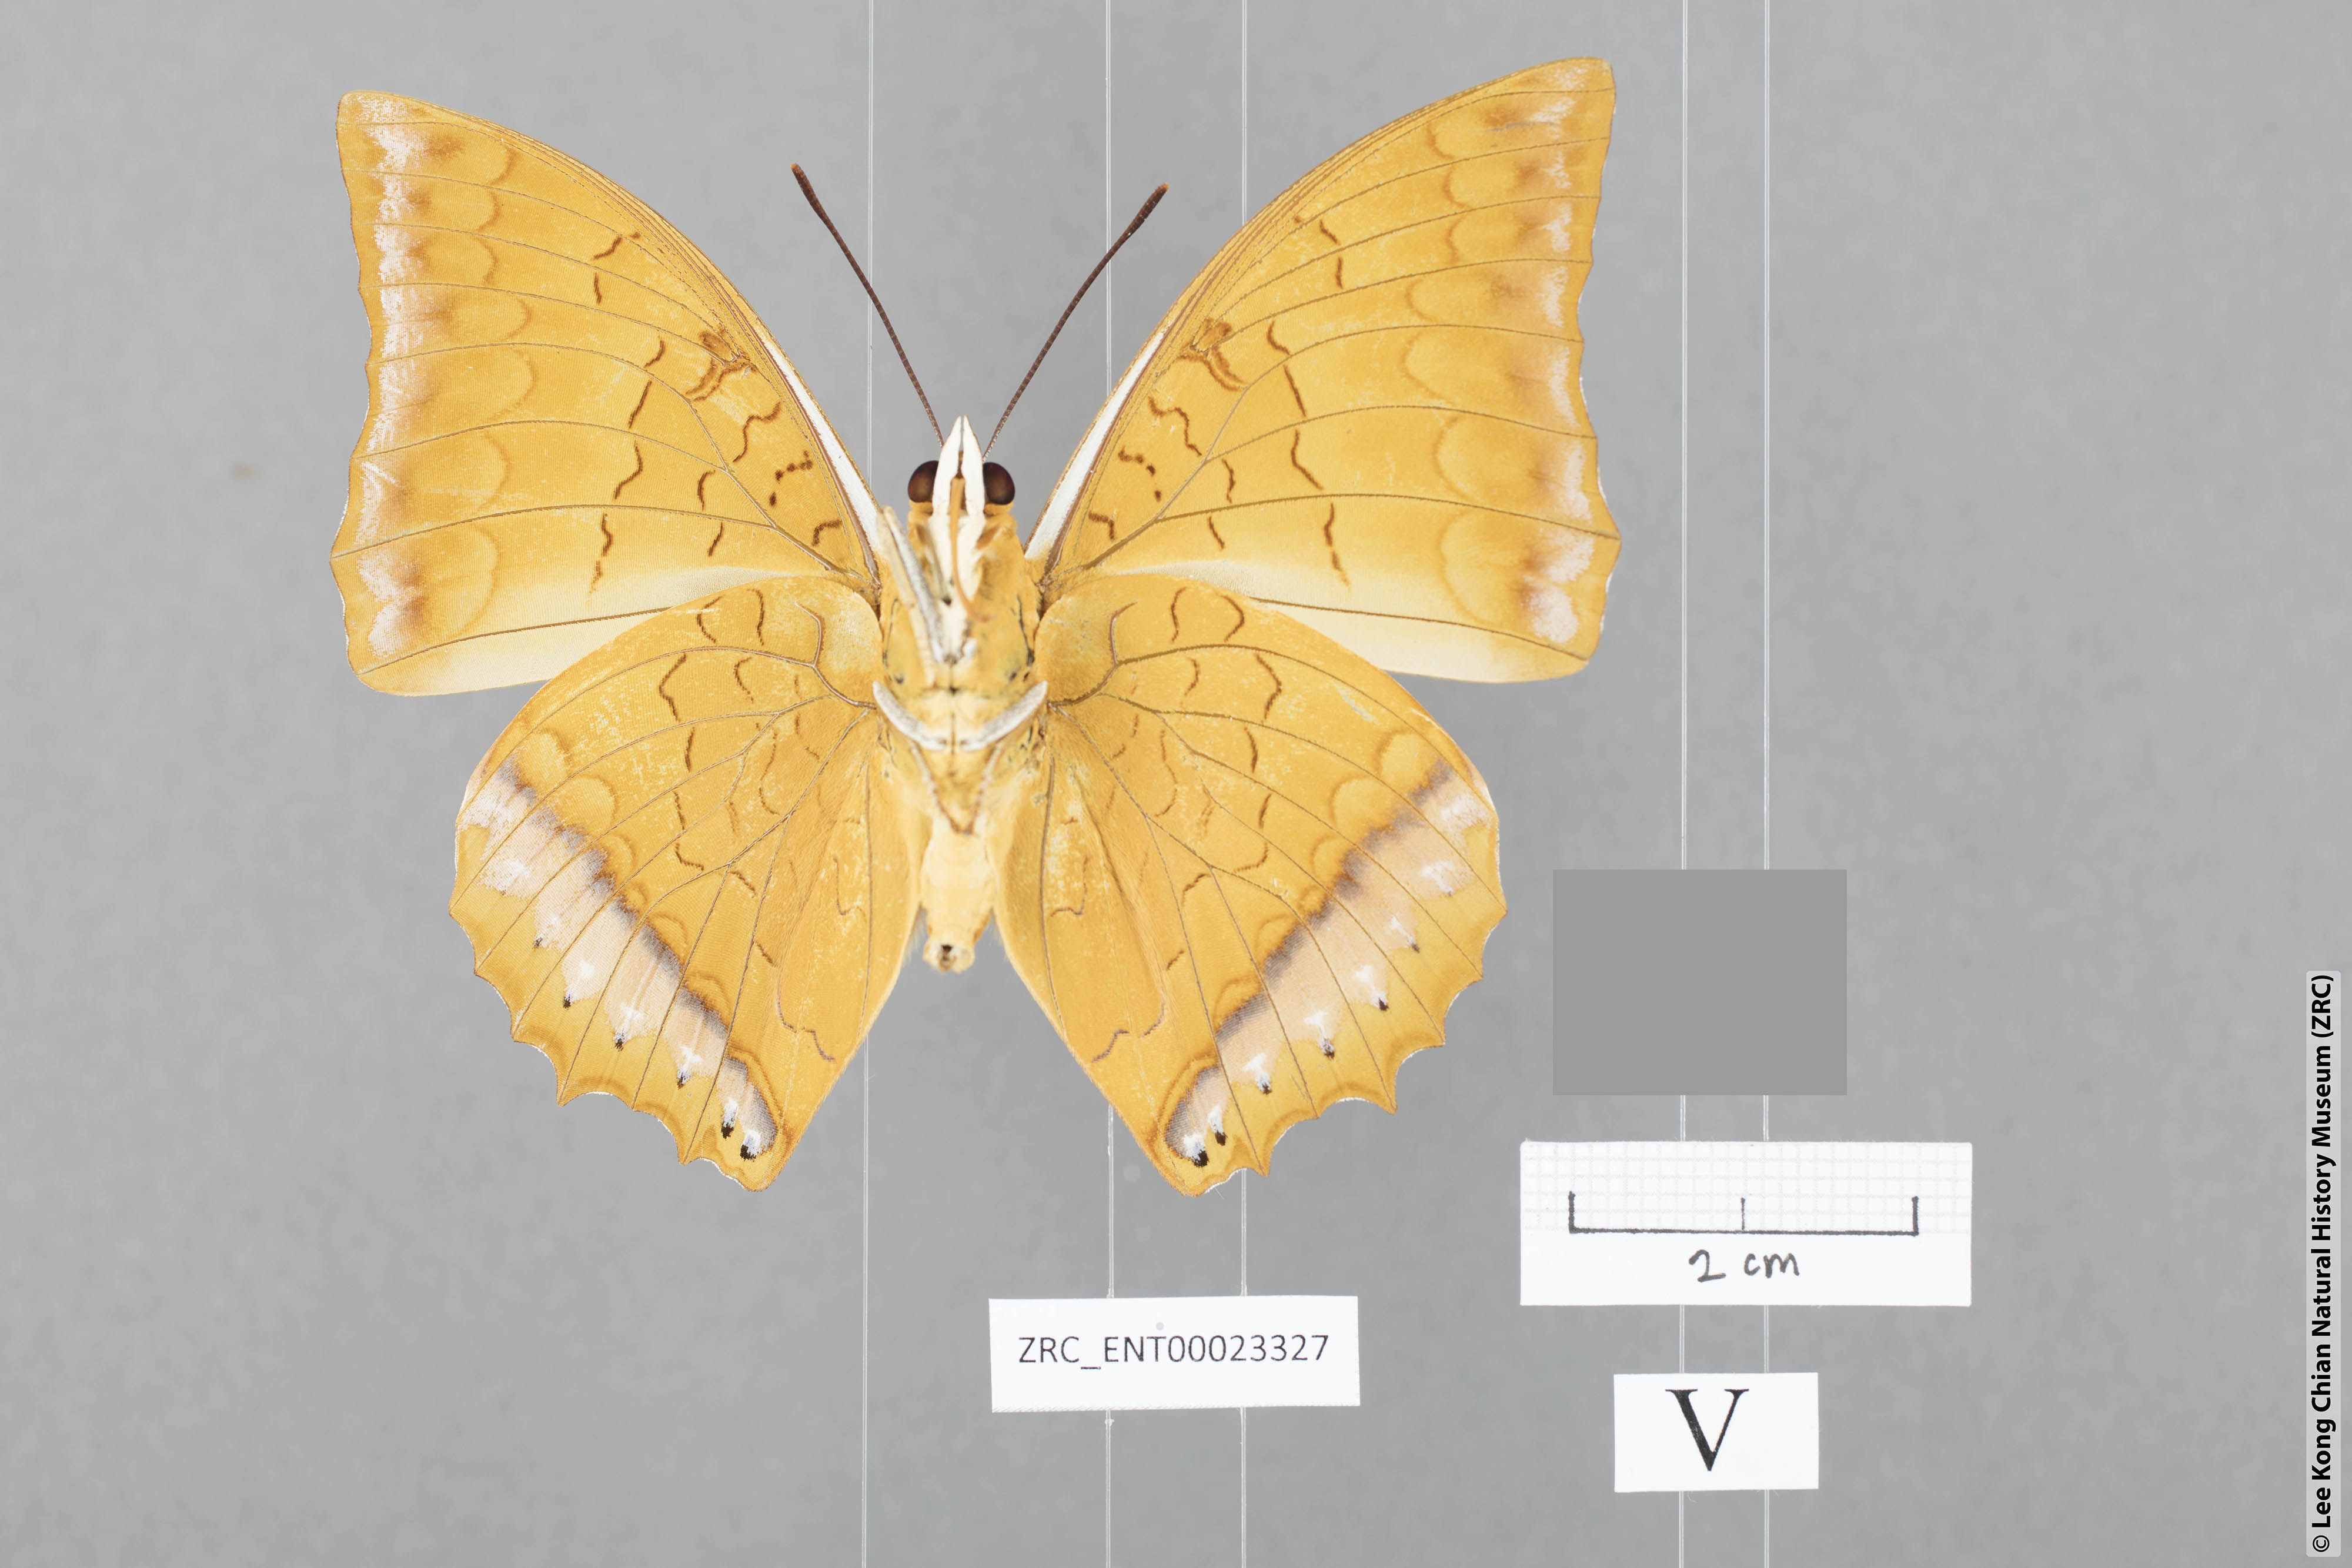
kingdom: Animalia
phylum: Arthropoda
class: Insecta
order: Lepidoptera
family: Nymphalidae
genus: Charaxes
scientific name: Charaxes distanti
